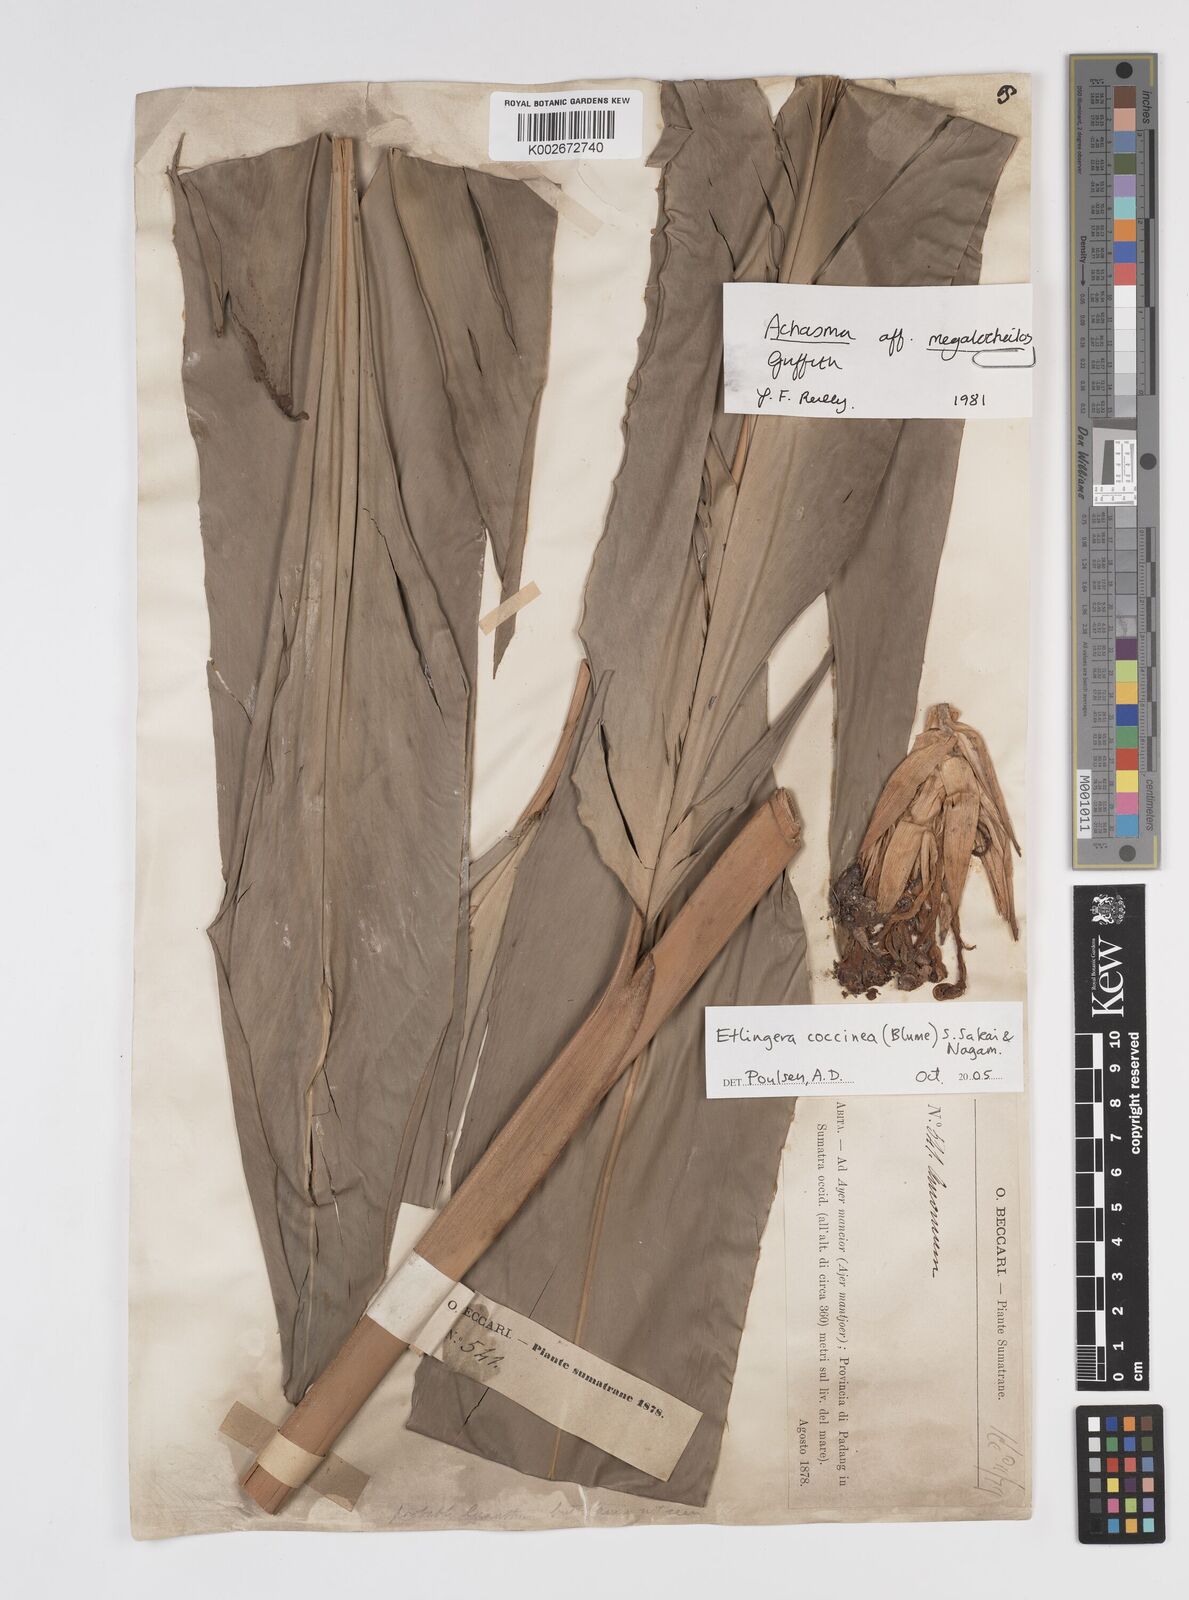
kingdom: Plantae
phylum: Tracheophyta
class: Liliopsida
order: Zingiberales
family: Zingiberaceae
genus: Etlingera
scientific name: Etlingera coccinea
